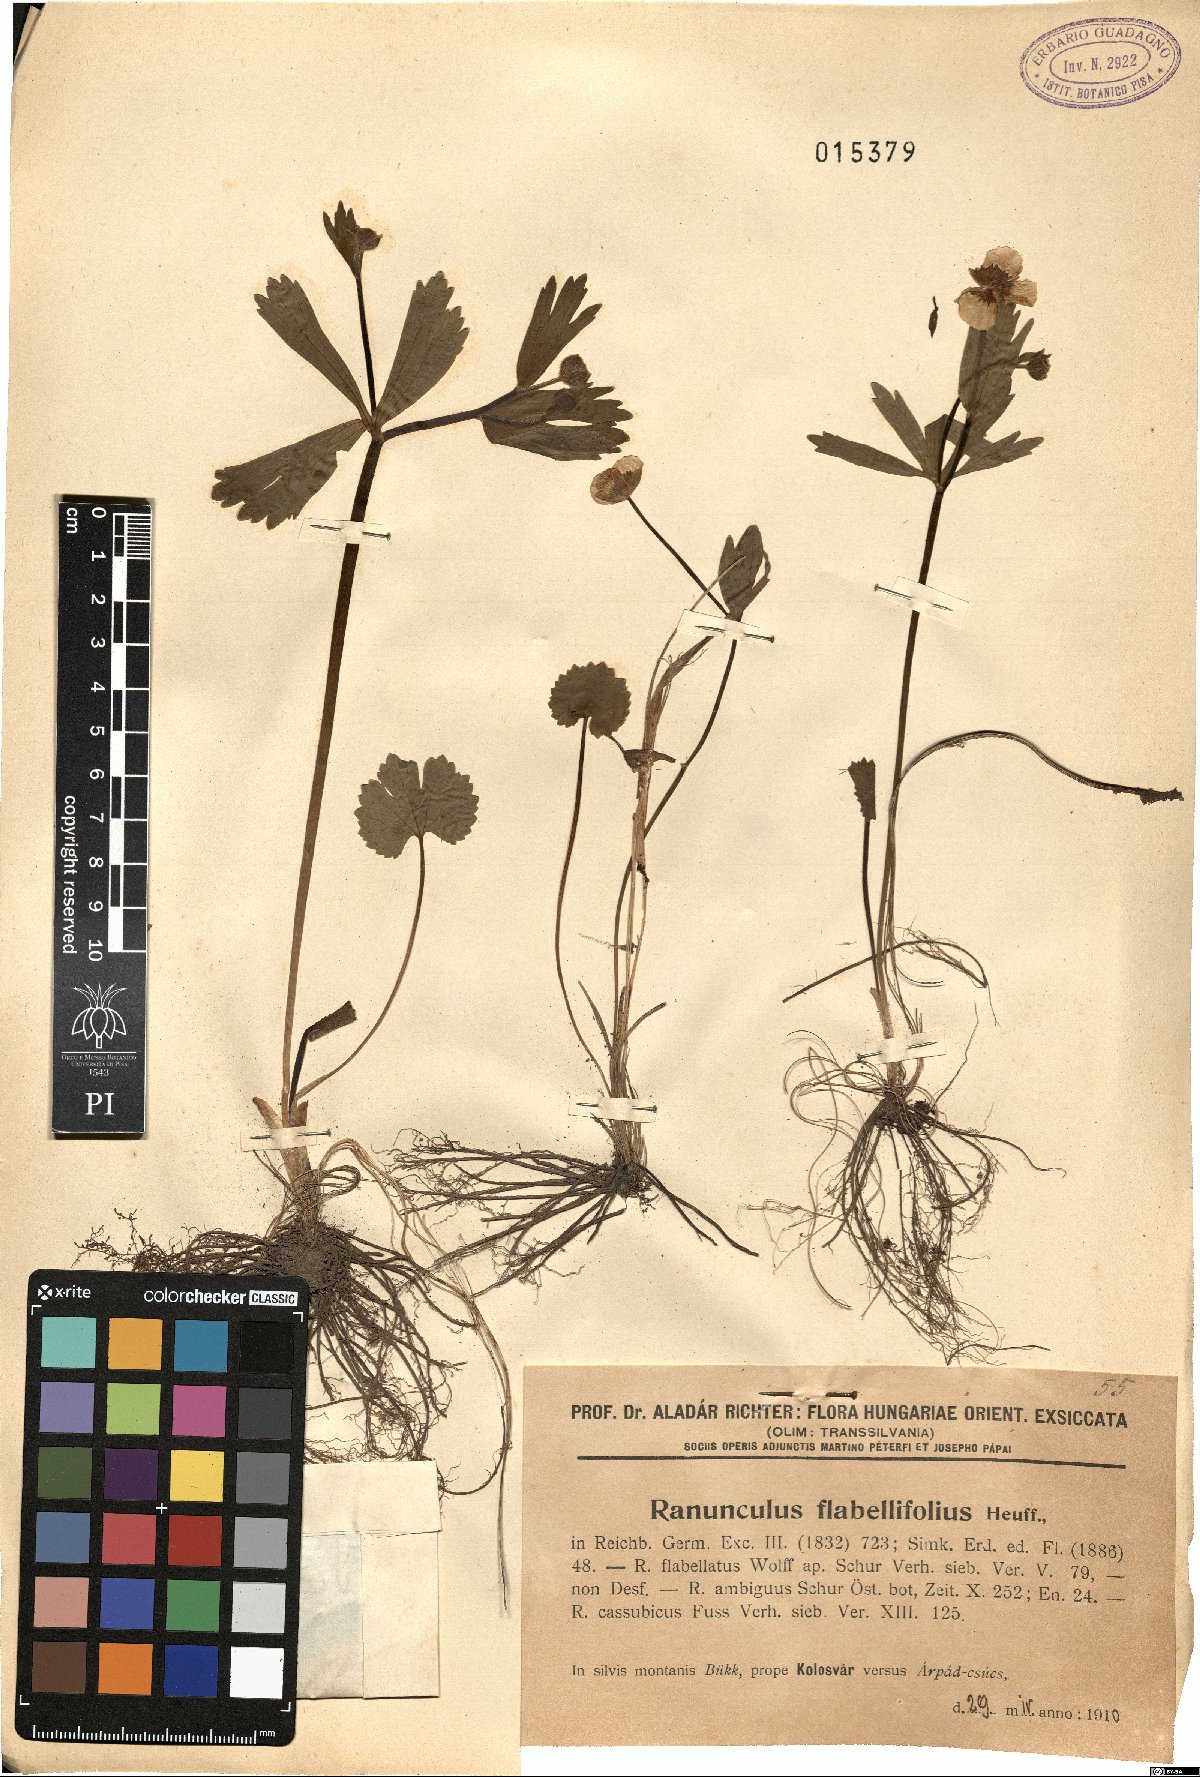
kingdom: Plantae
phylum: Tracheophyta
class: Magnoliopsida
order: Ranunculales
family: Ranunculaceae
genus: Ranunculus
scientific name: Ranunculus flabellifolius
